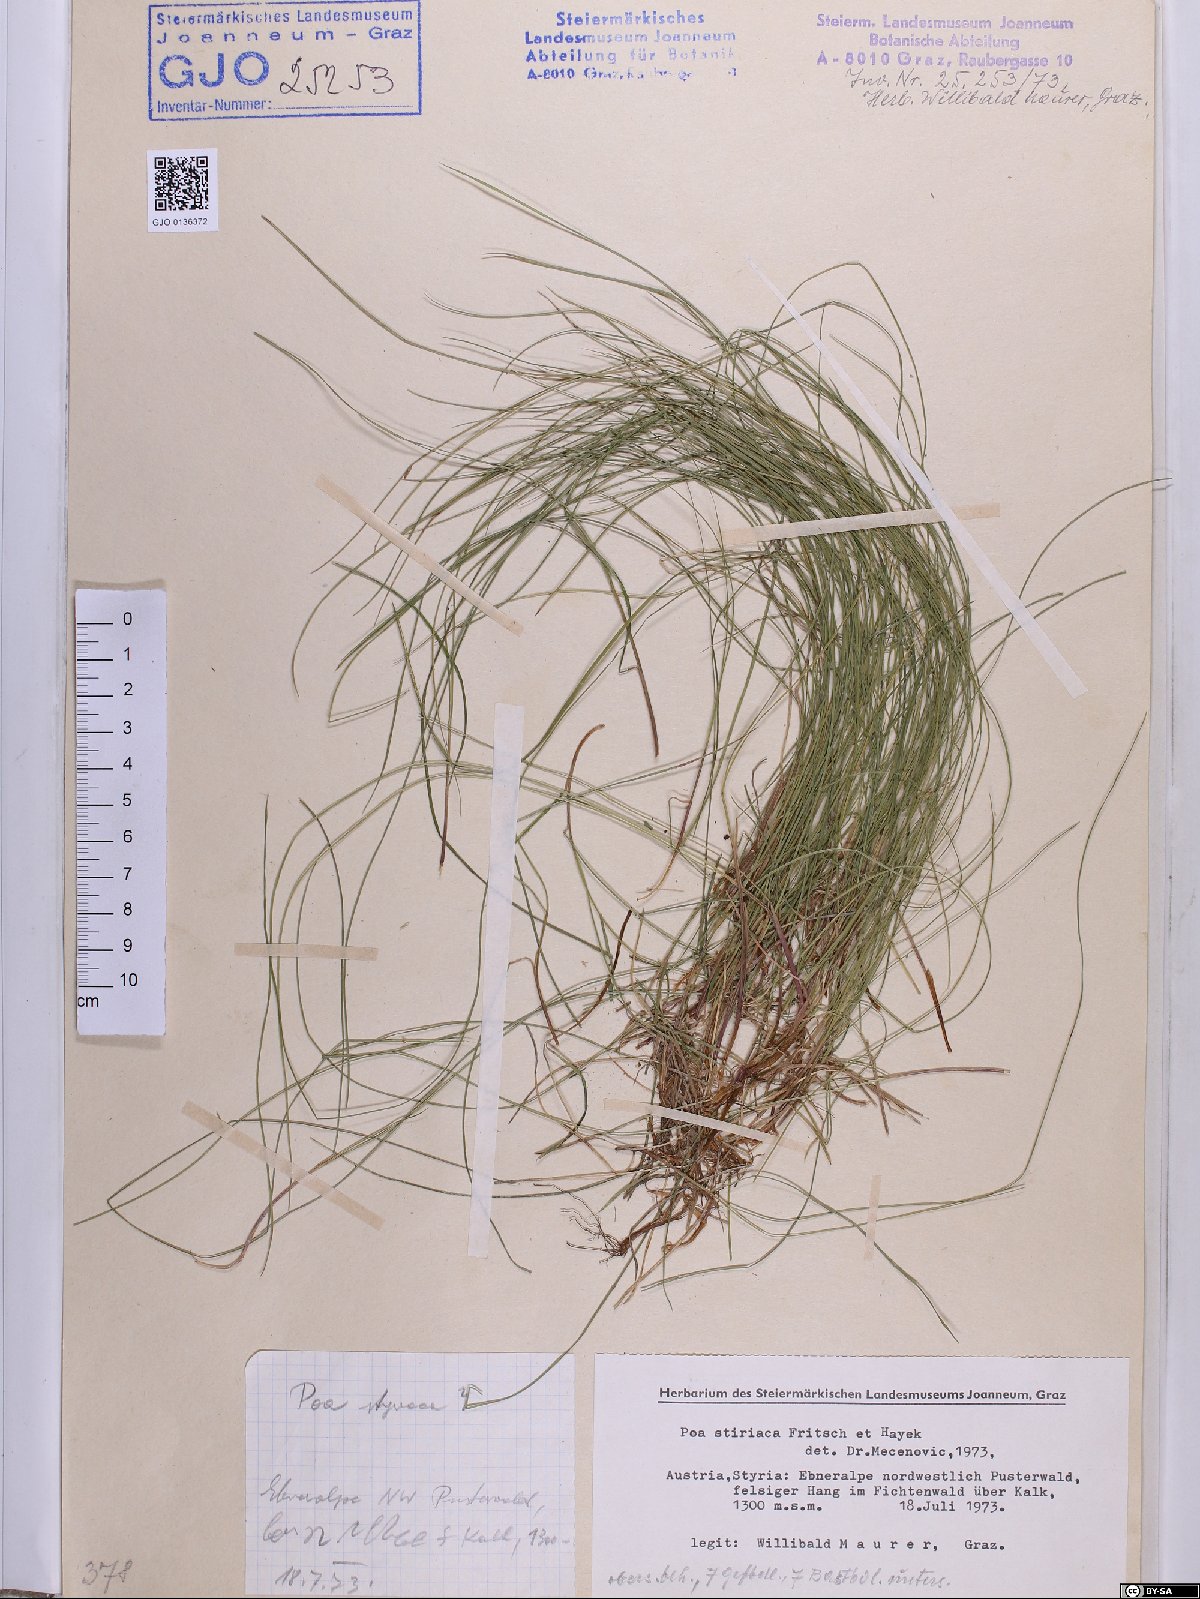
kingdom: Plantae
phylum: Tracheophyta
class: Liliopsida
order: Poales
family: Poaceae
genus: Poa
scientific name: Poa stiriaca
